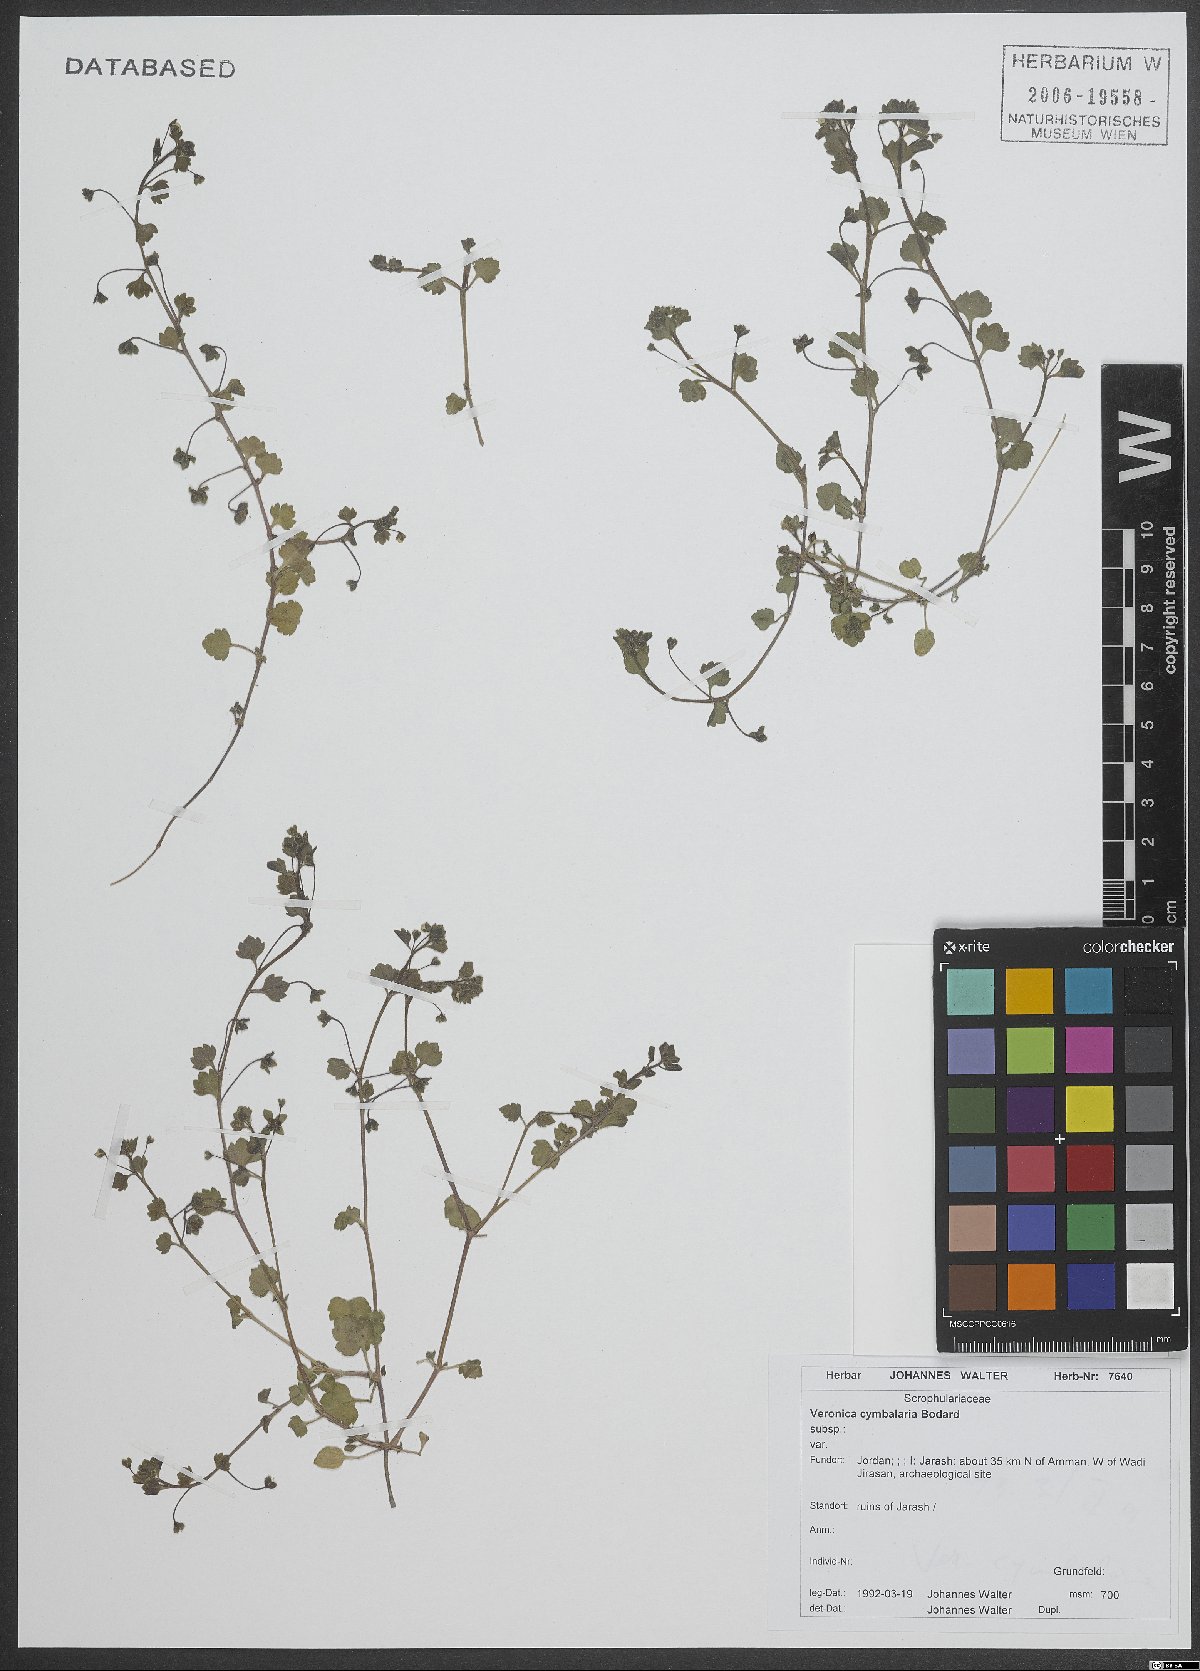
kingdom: Plantae
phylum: Tracheophyta
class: Magnoliopsida
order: Lamiales
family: Plantaginaceae
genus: Veronica
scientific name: Veronica cymbalaria
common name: Pale speedwell
